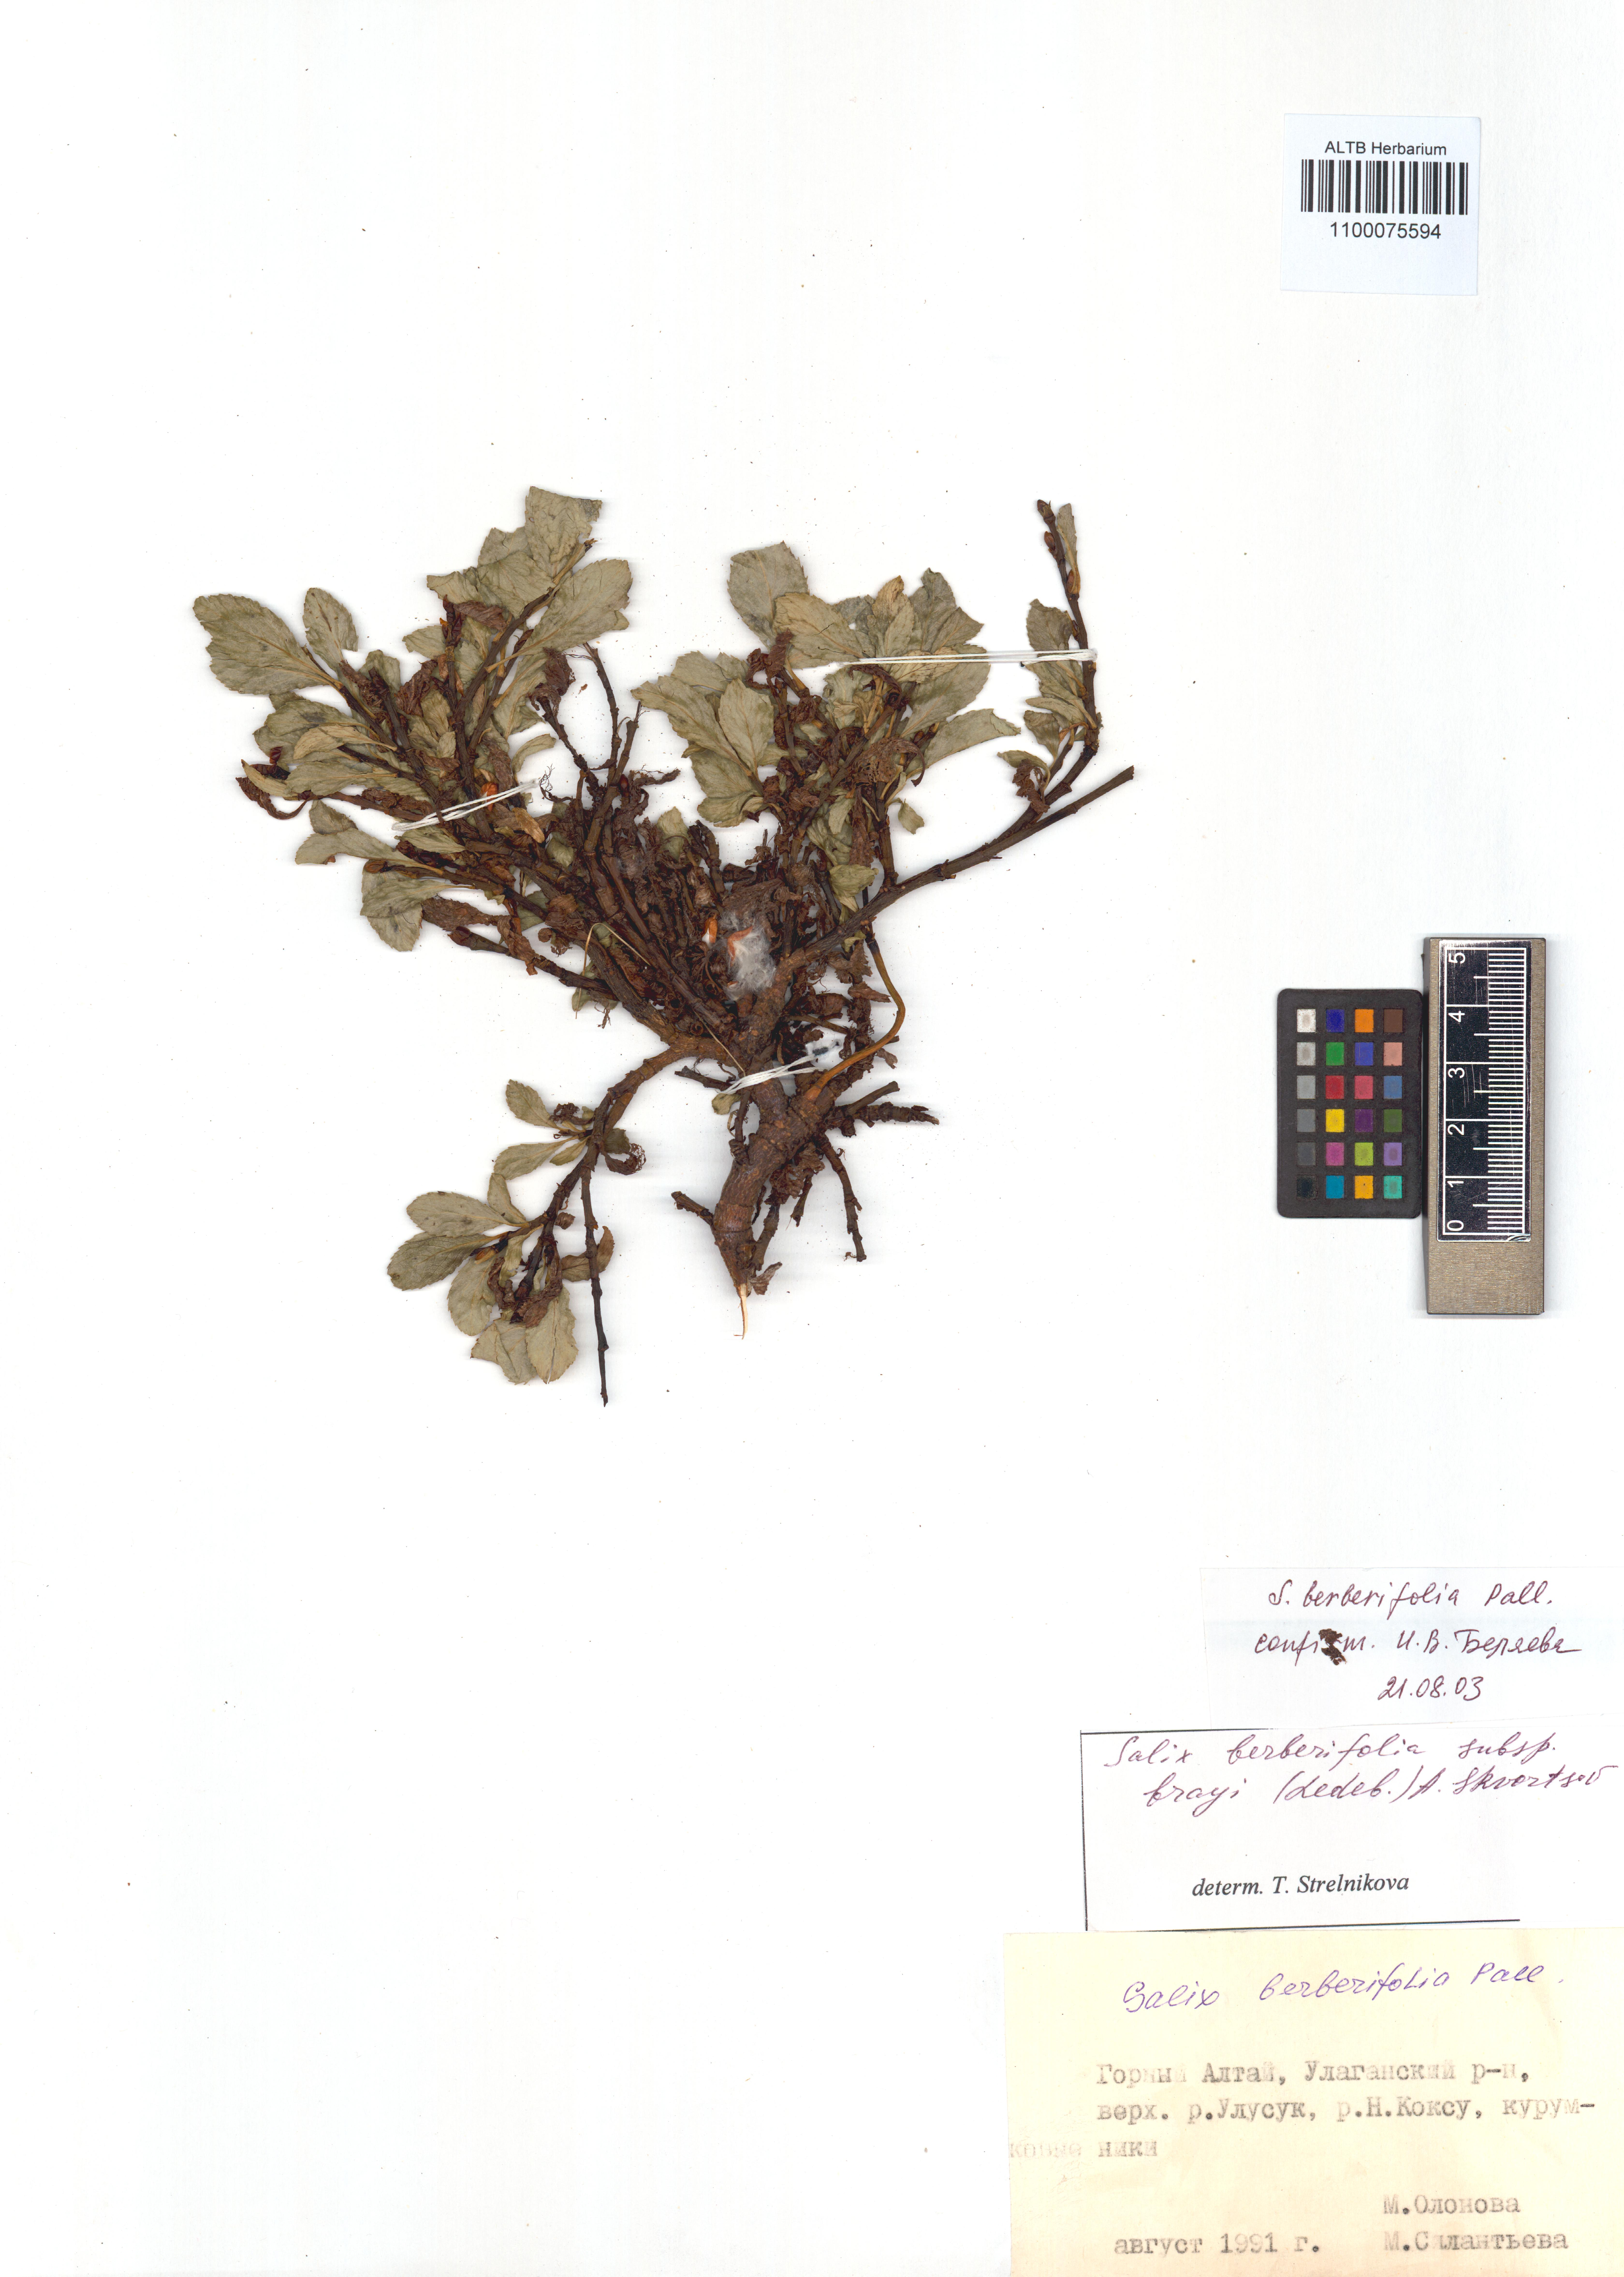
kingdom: Plantae
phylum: Tracheophyta
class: Magnoliopsida
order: Malpighiales
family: Salicaceae
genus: Salix
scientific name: Salix berberifolia
